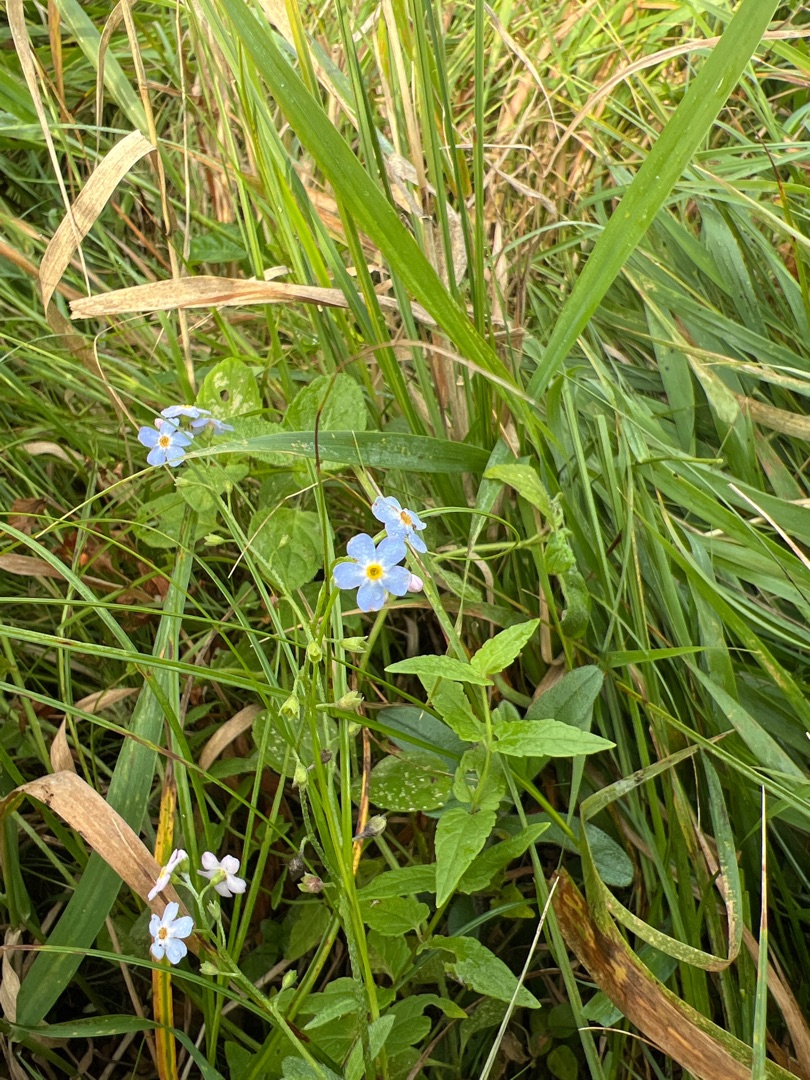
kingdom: Plantae
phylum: Tracheophyta
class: Magnoliopsida
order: Boraginales
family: Boraginaceae
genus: Myosotis
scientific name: Myosotis scorpioides
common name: Eng-forglemmigej
